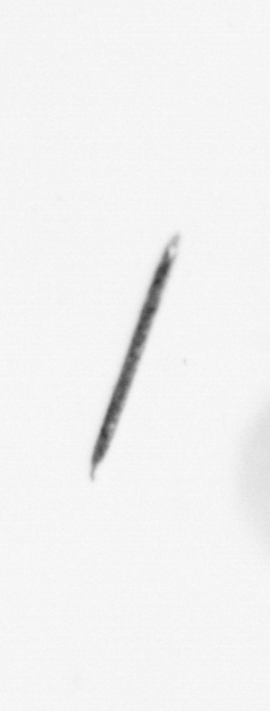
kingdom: Chromista
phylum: Ochrophyta
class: Bacillariophyceae
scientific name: Bacillariophyceae
